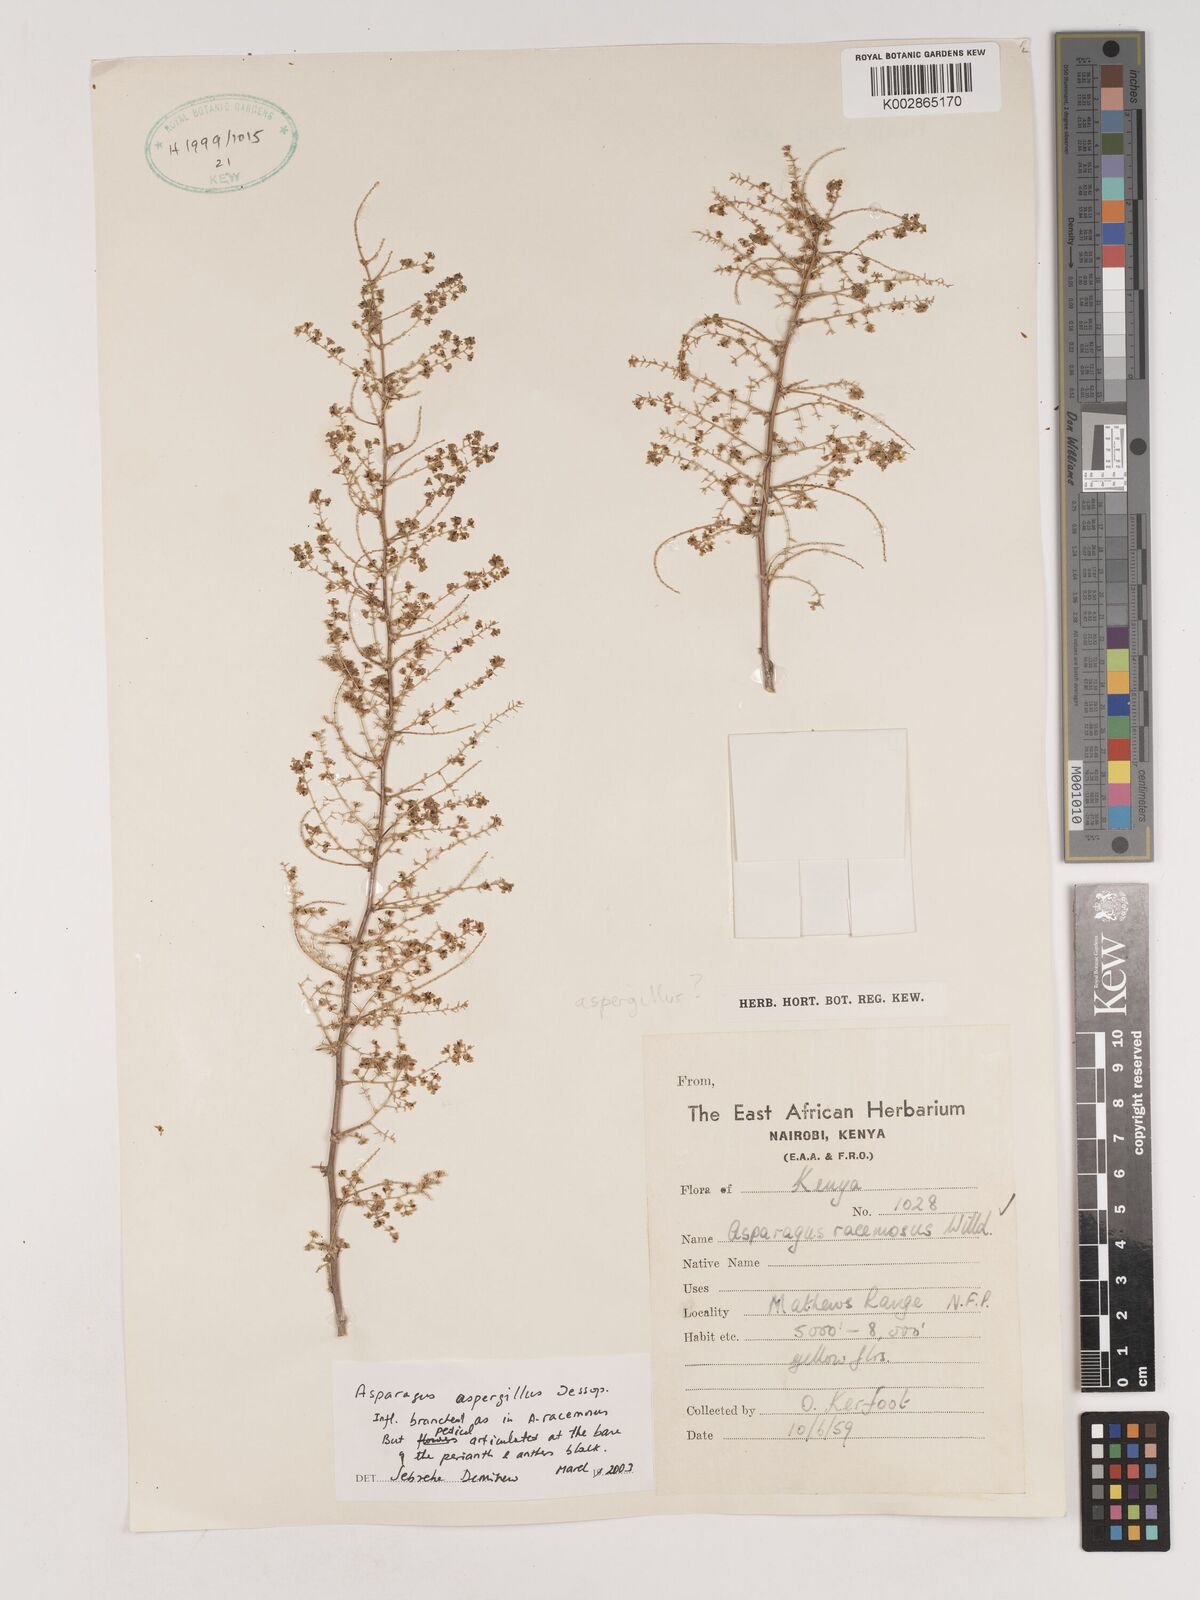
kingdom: Plantae
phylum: Tracheophyta
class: Liliopsida
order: Asparagales
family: Asparagaceae
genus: Asparagus
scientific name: Asparagus aspergillus
